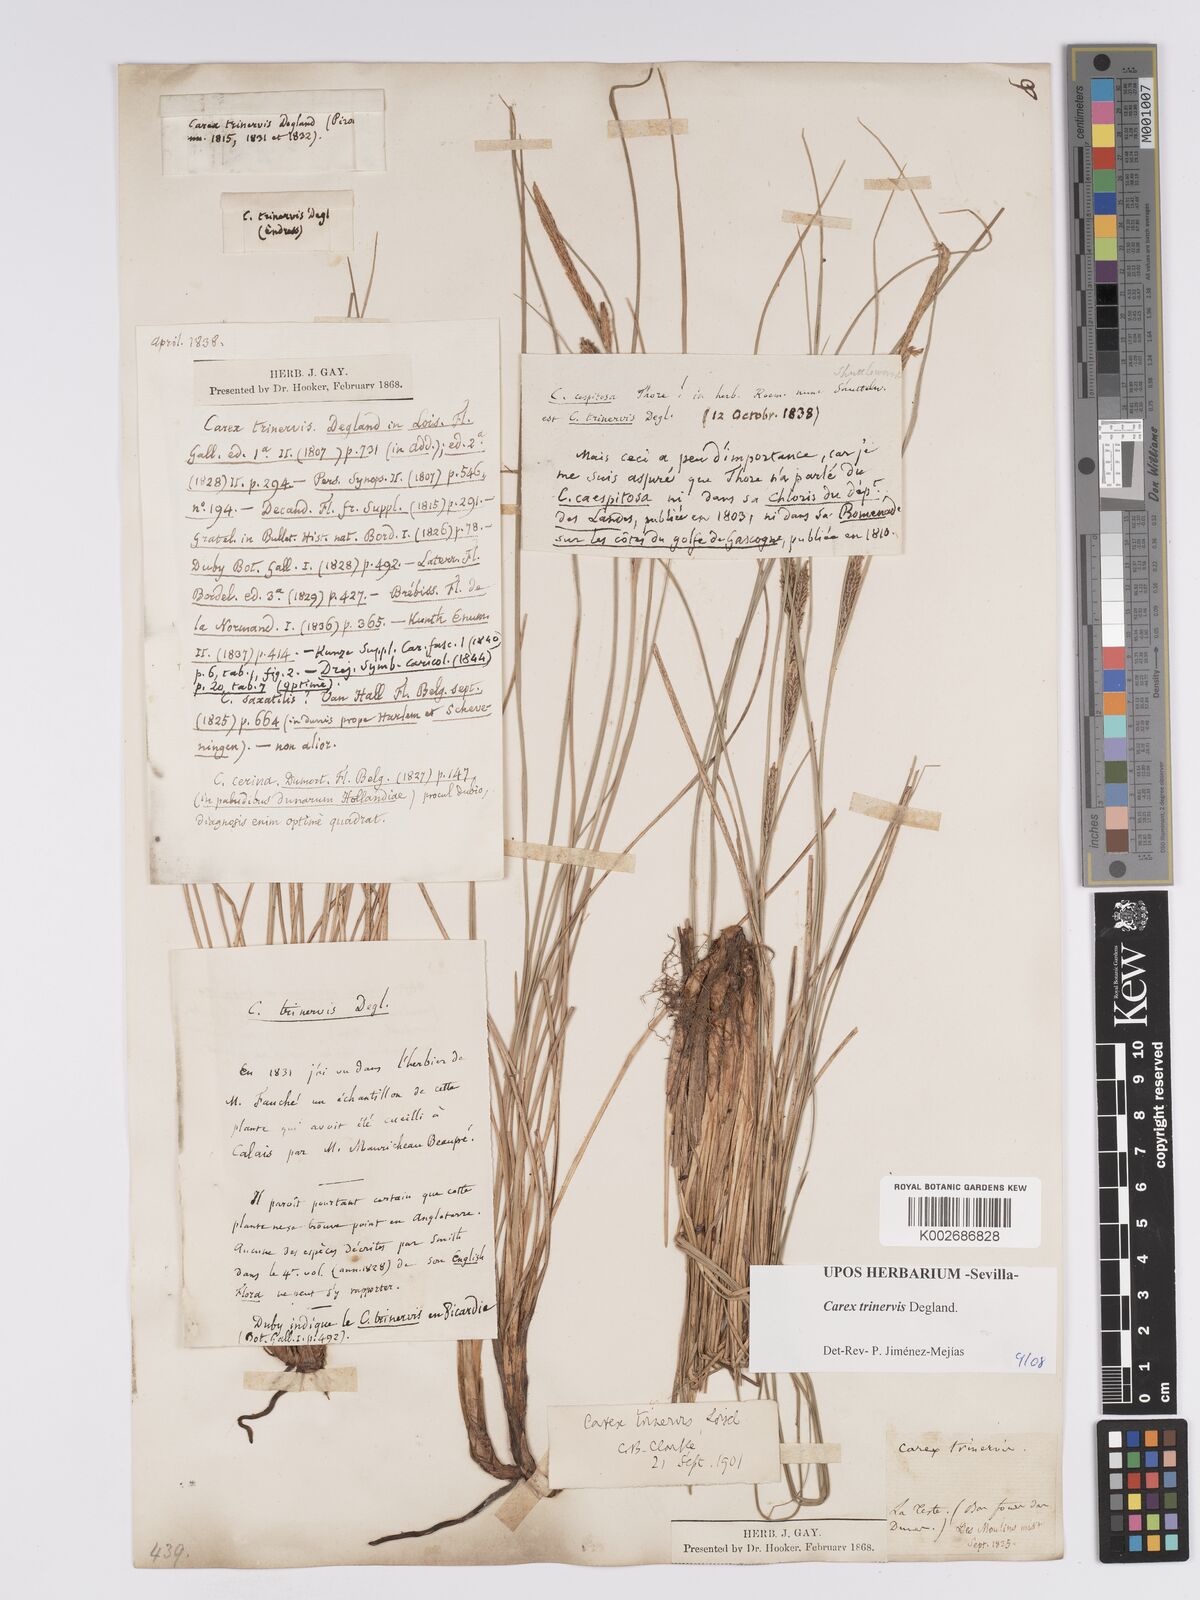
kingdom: Plantae
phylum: Tracheophyta
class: Liliopsida
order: Poales
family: Cyperaceae
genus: Carex
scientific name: Carex trinervis
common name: Three-nerved sedge
